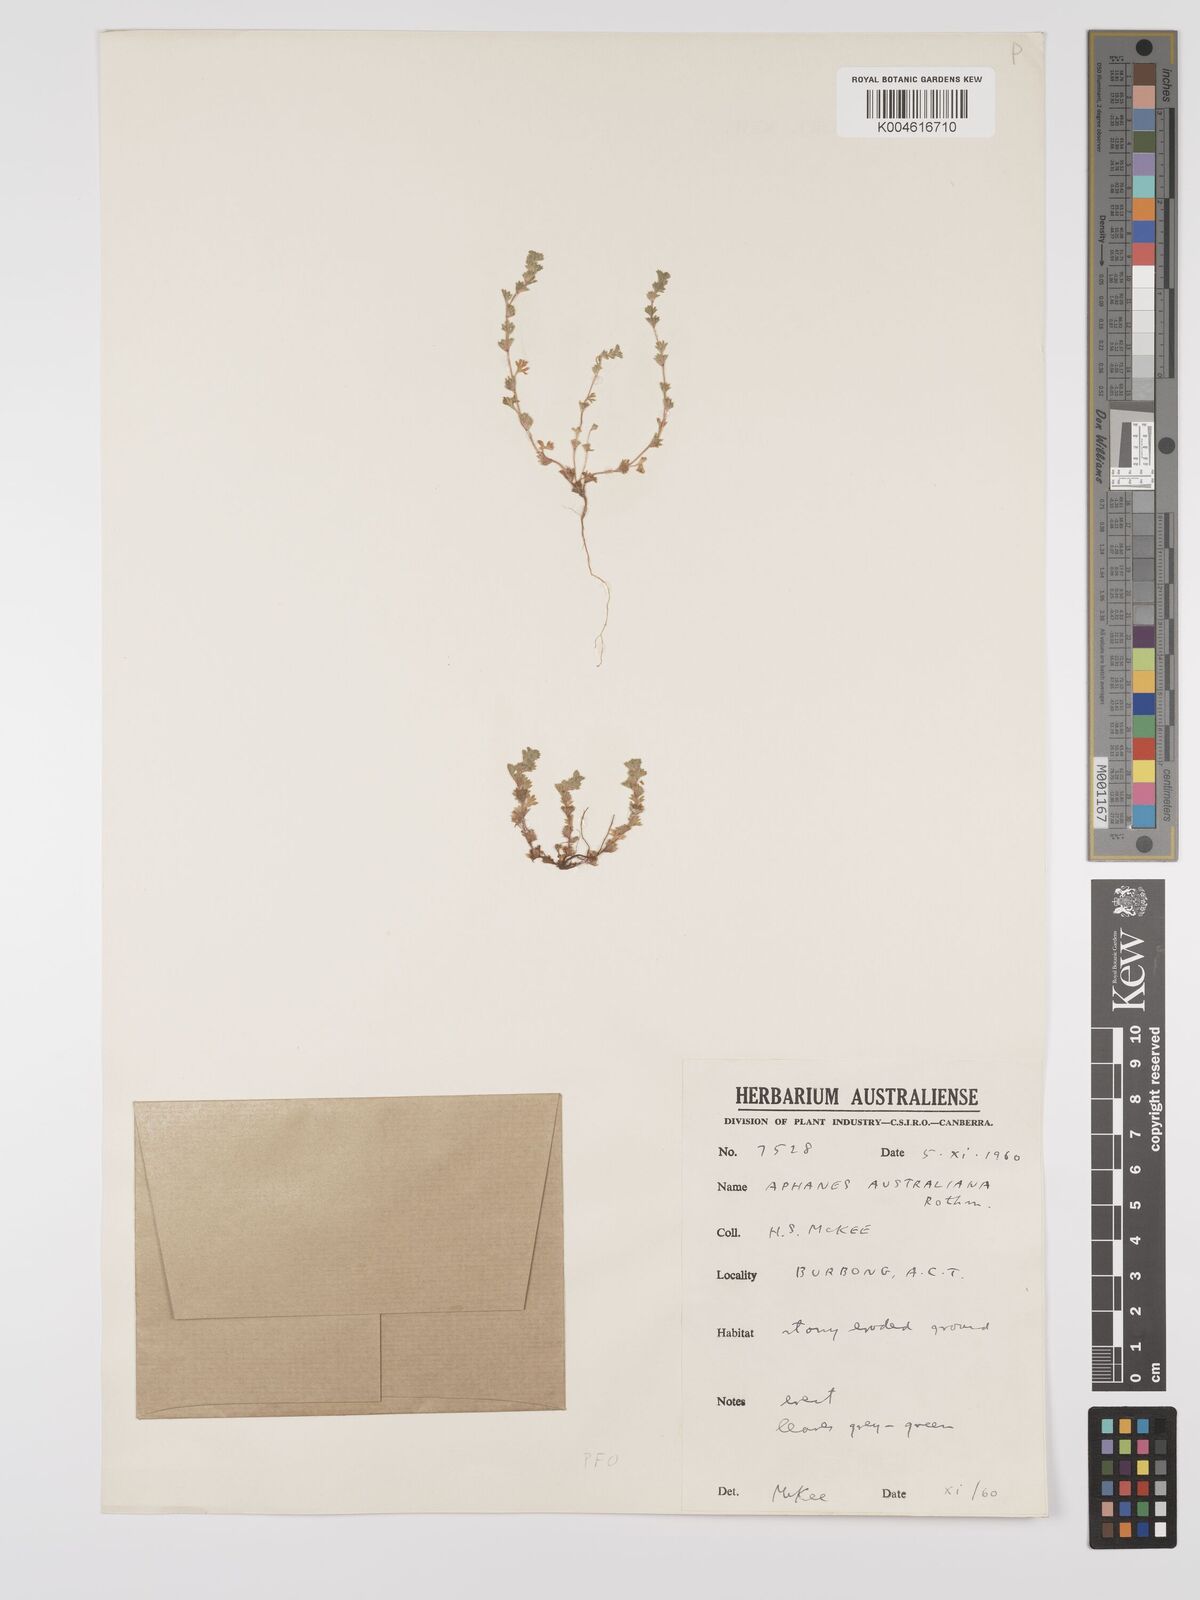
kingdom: Plantae
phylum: Tracheophyta
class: Magnoliopsida
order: Rosales
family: Rosaceae
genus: Aphanes
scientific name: Aphanes australiana
